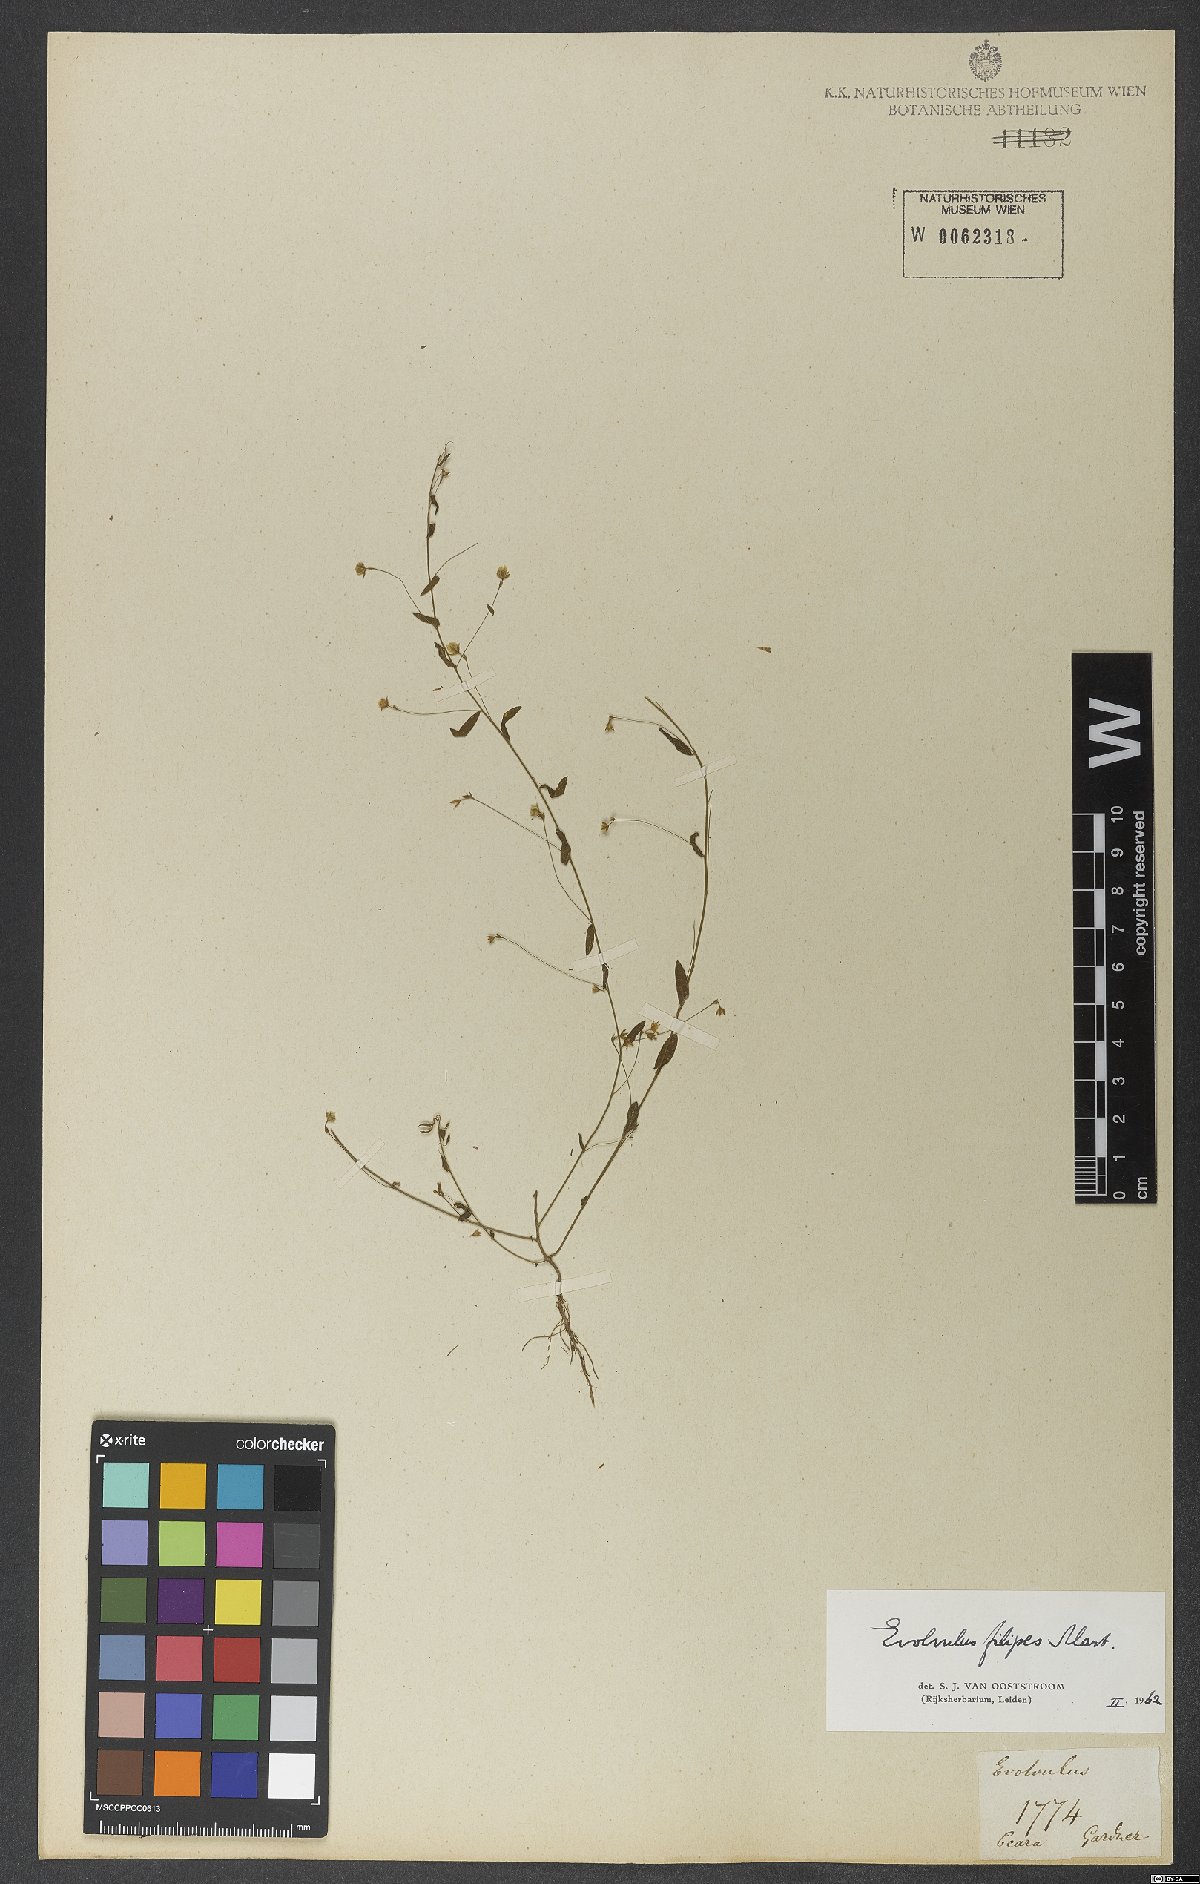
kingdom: Plantae
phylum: Tracheophyta
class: Magnoliopsida
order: Solanales
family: Convolvulaceae
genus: Evolvulus
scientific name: Evolvulus filipes
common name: Maryland dwarf morning-glory
